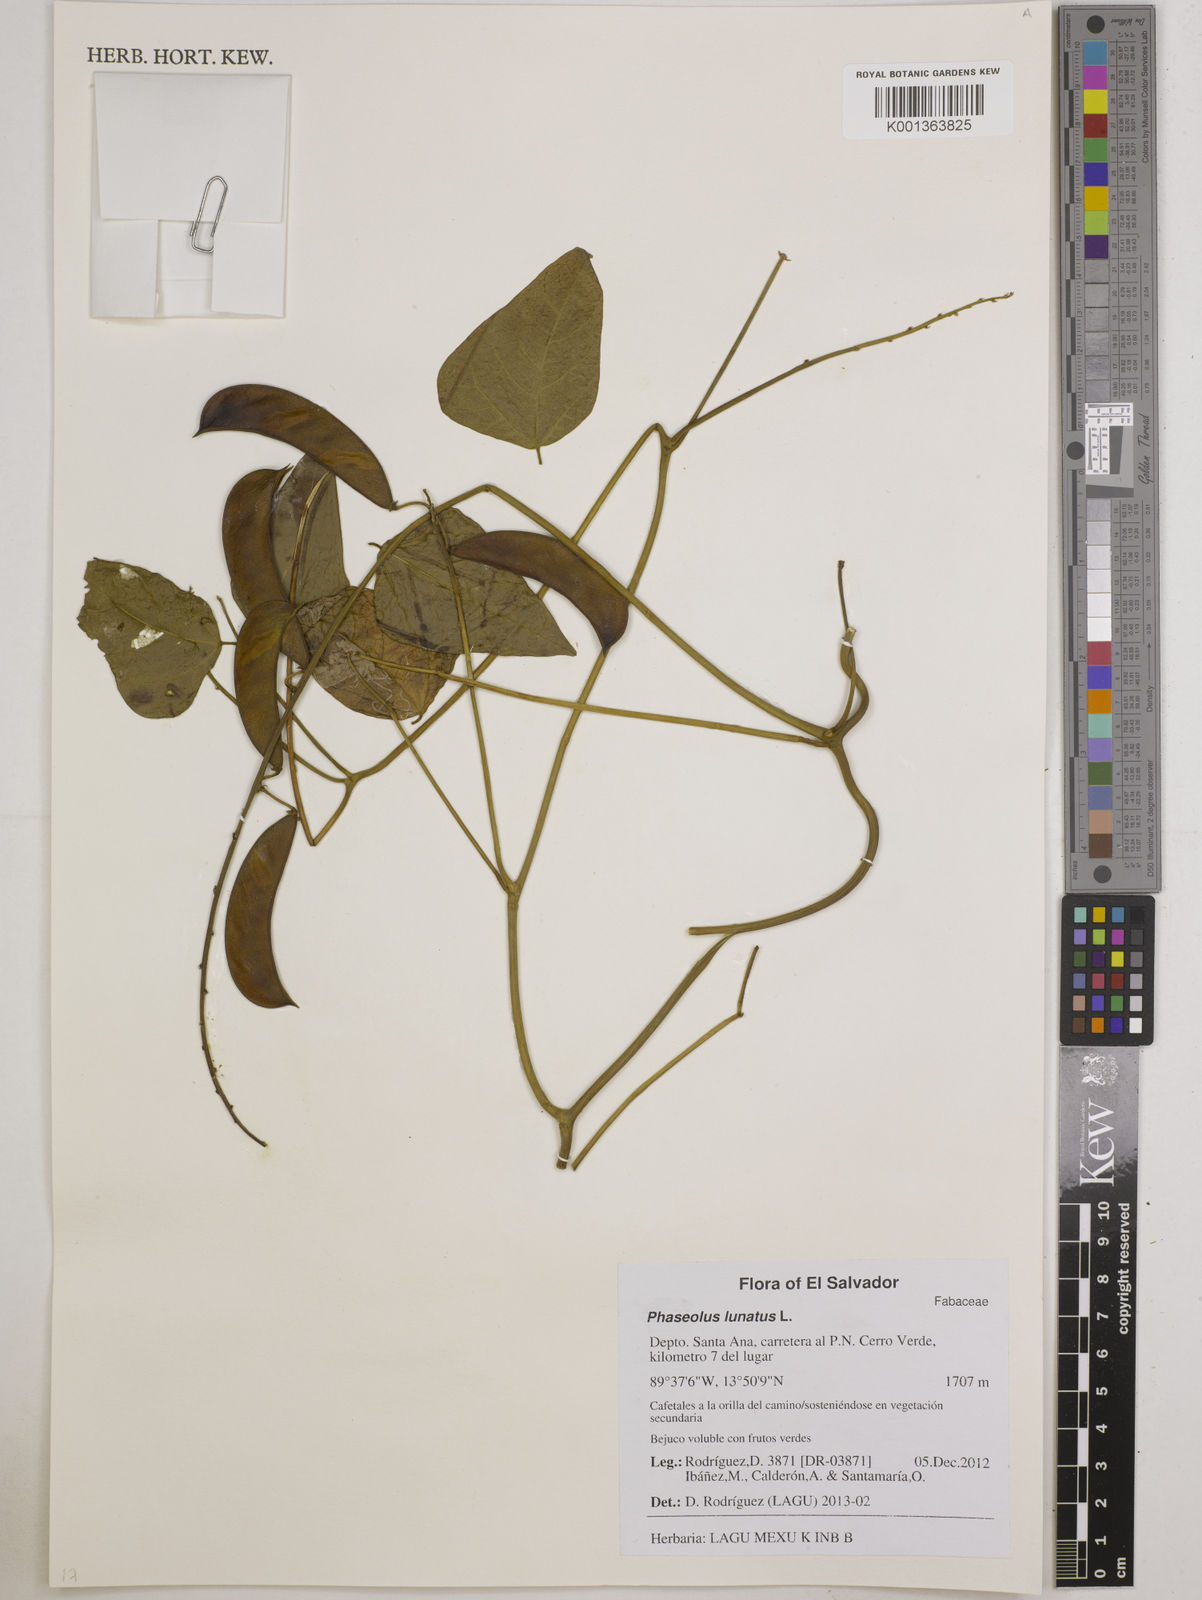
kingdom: Plantae
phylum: Tracheophyta
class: Magnoliopsida
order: Fabales
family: Fabaceae
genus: Phaseolus
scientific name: Phaseolus lunatus
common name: Sieva bean
